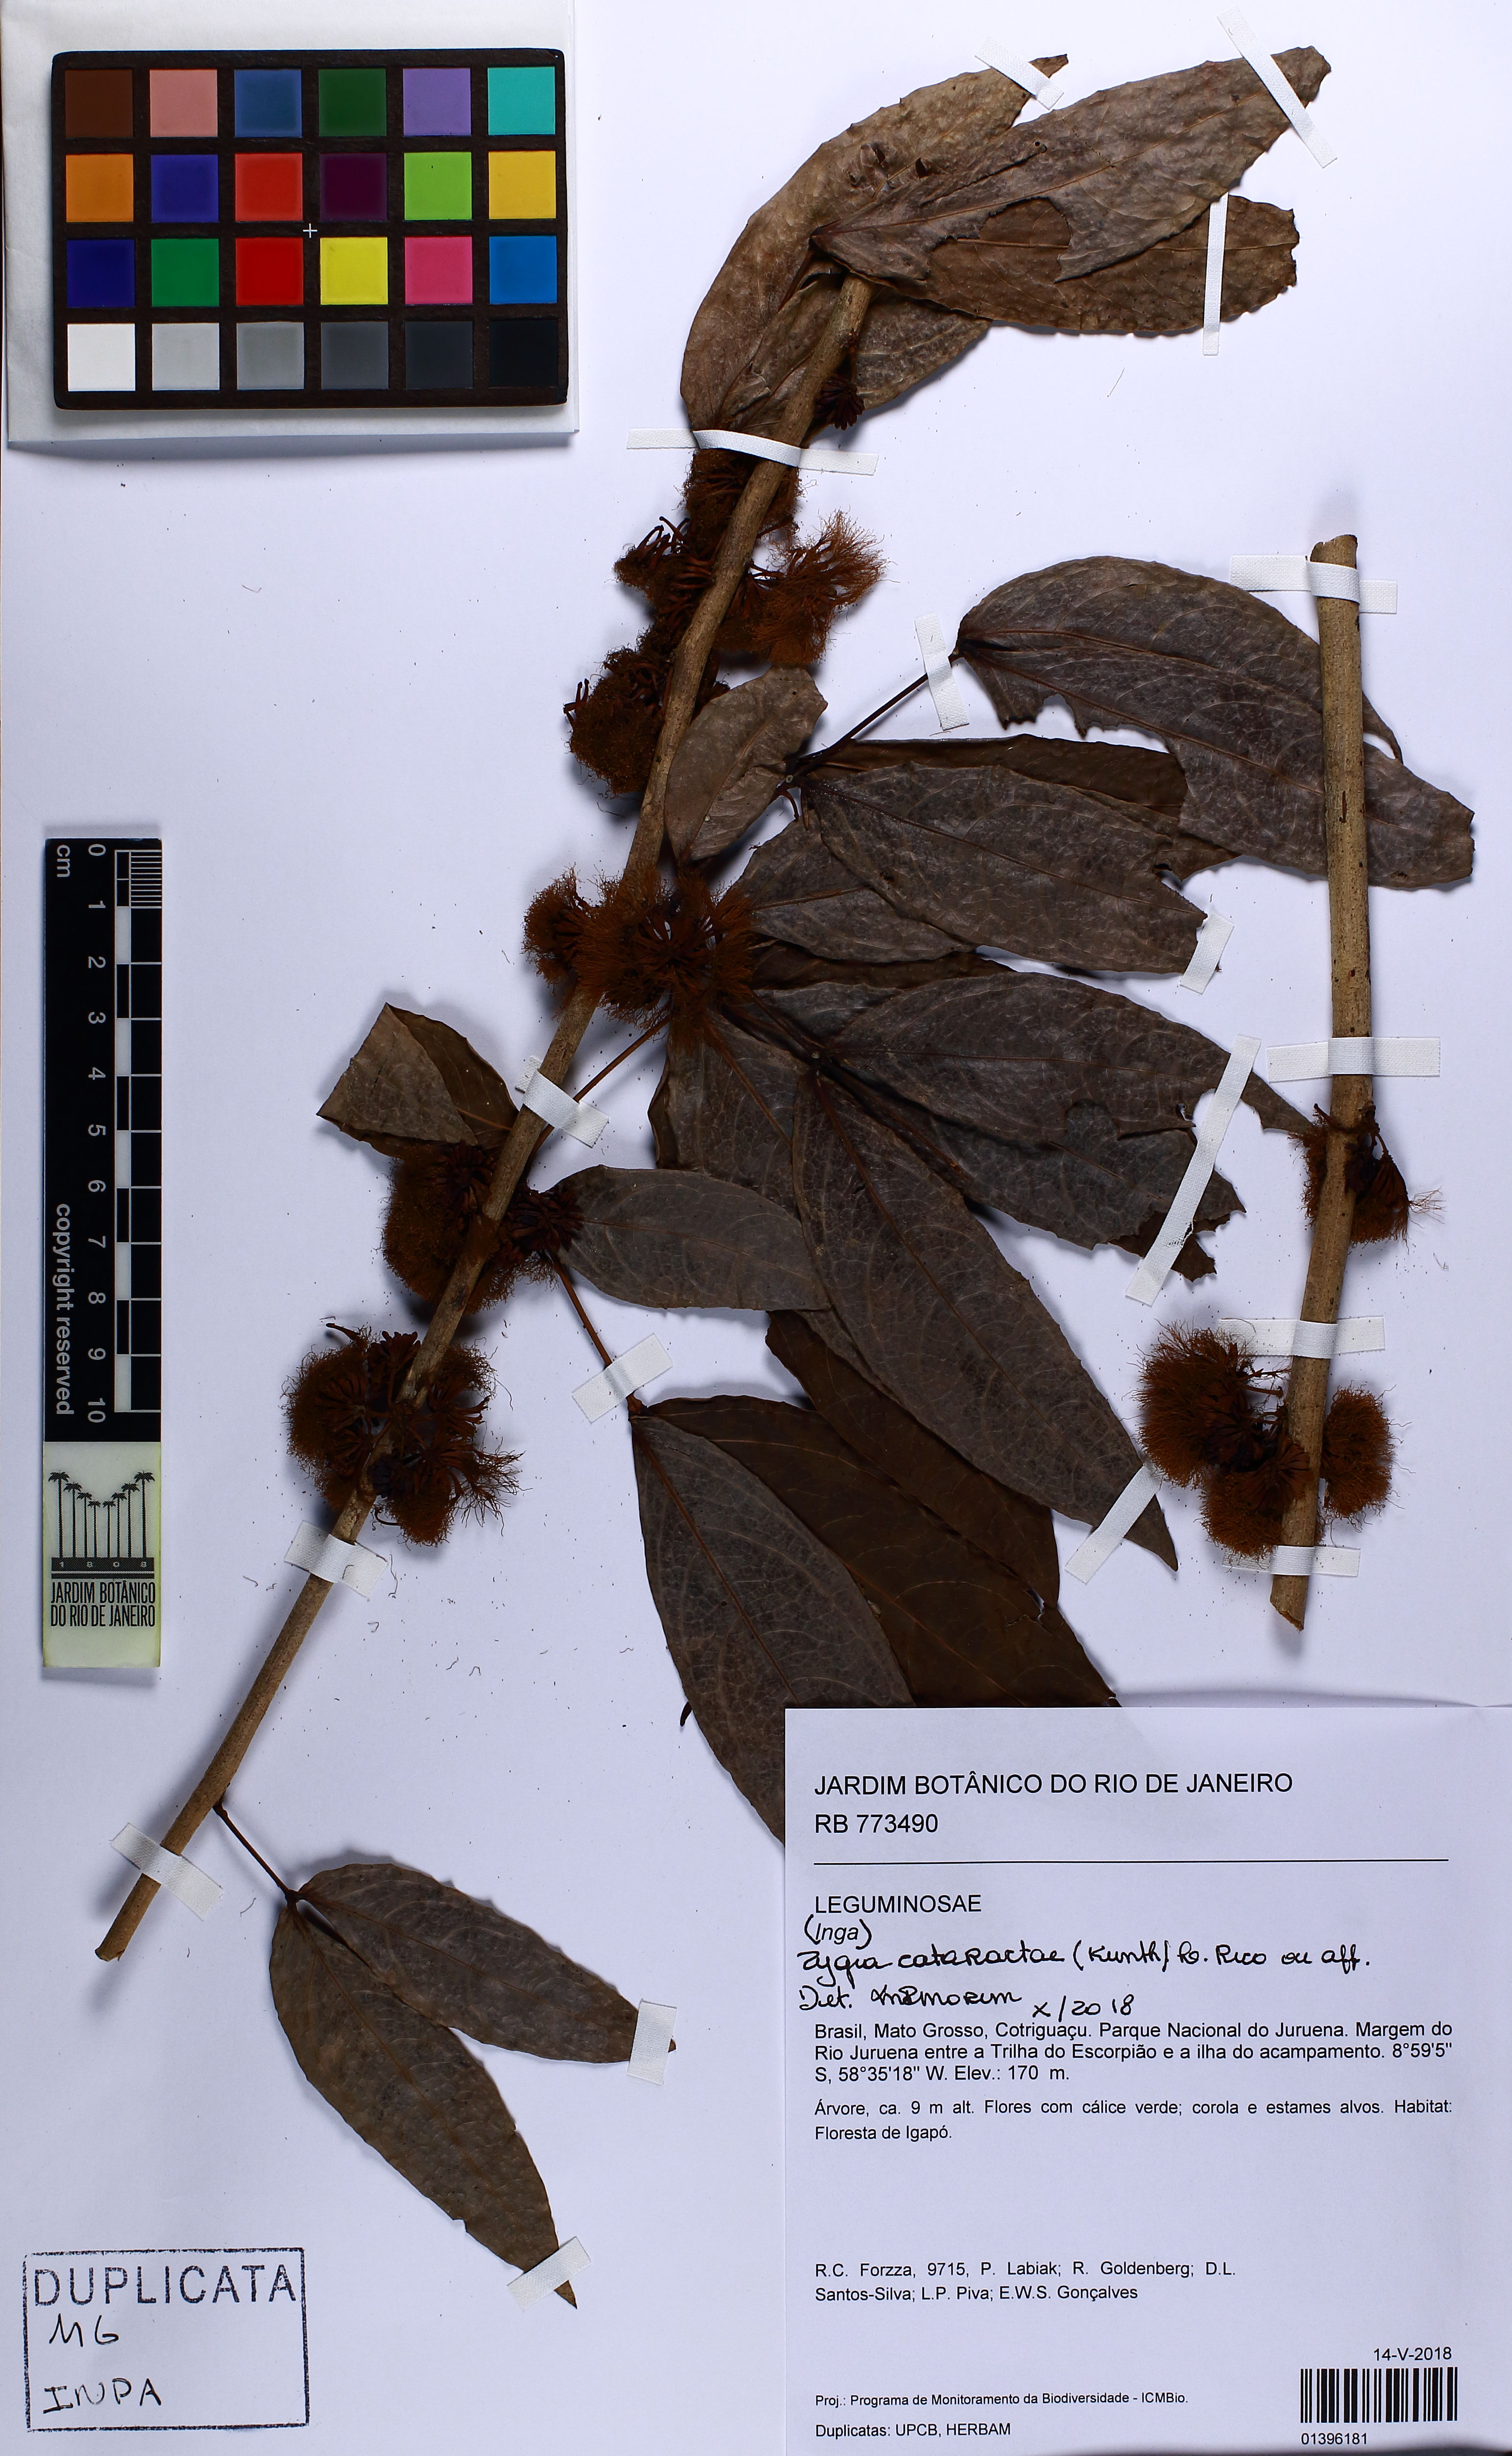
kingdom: Plantae
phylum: Tracheophyta
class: Magnoliopsida
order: Fabales
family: Fabaceae
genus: Zygia
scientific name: Zygia cataractae
